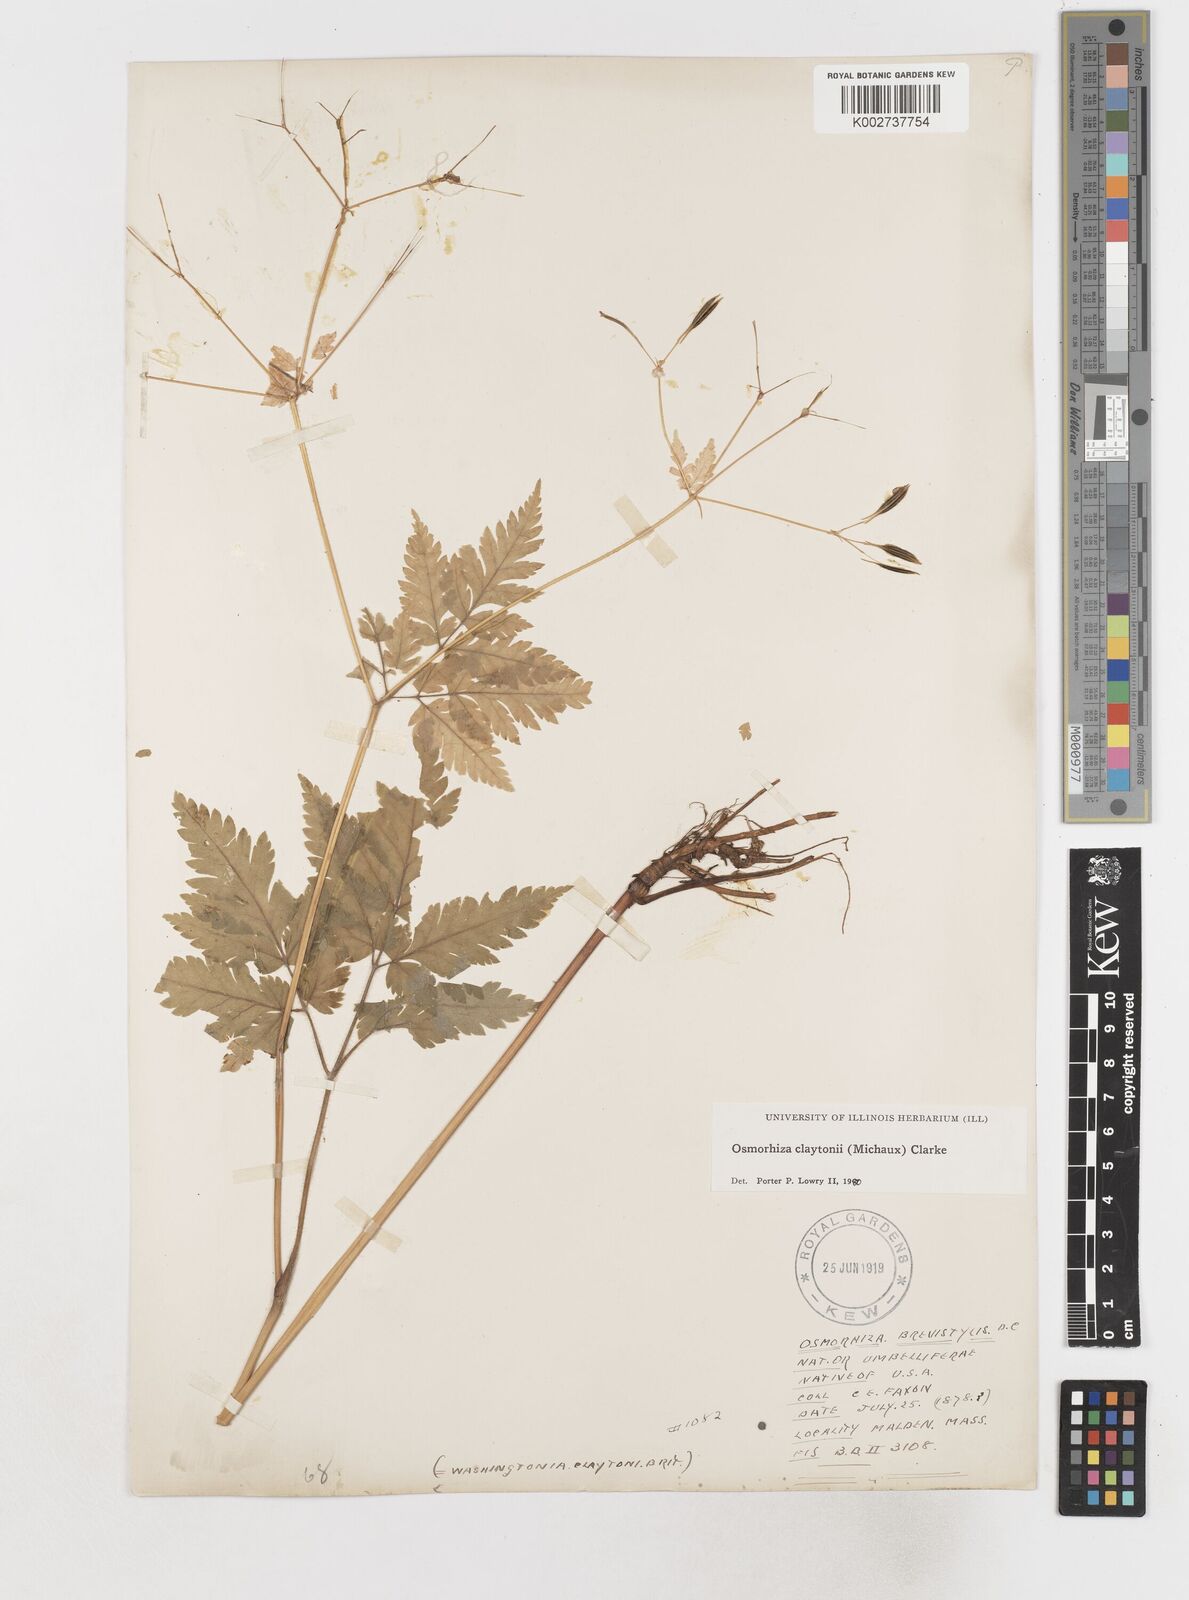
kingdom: Plantae
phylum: Tracheophyta
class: Magnoliopsida
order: Apiales
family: Apiaceae
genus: Osmorhiza
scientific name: Osmorhiza claytonii
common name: Hairy sweet cicely
